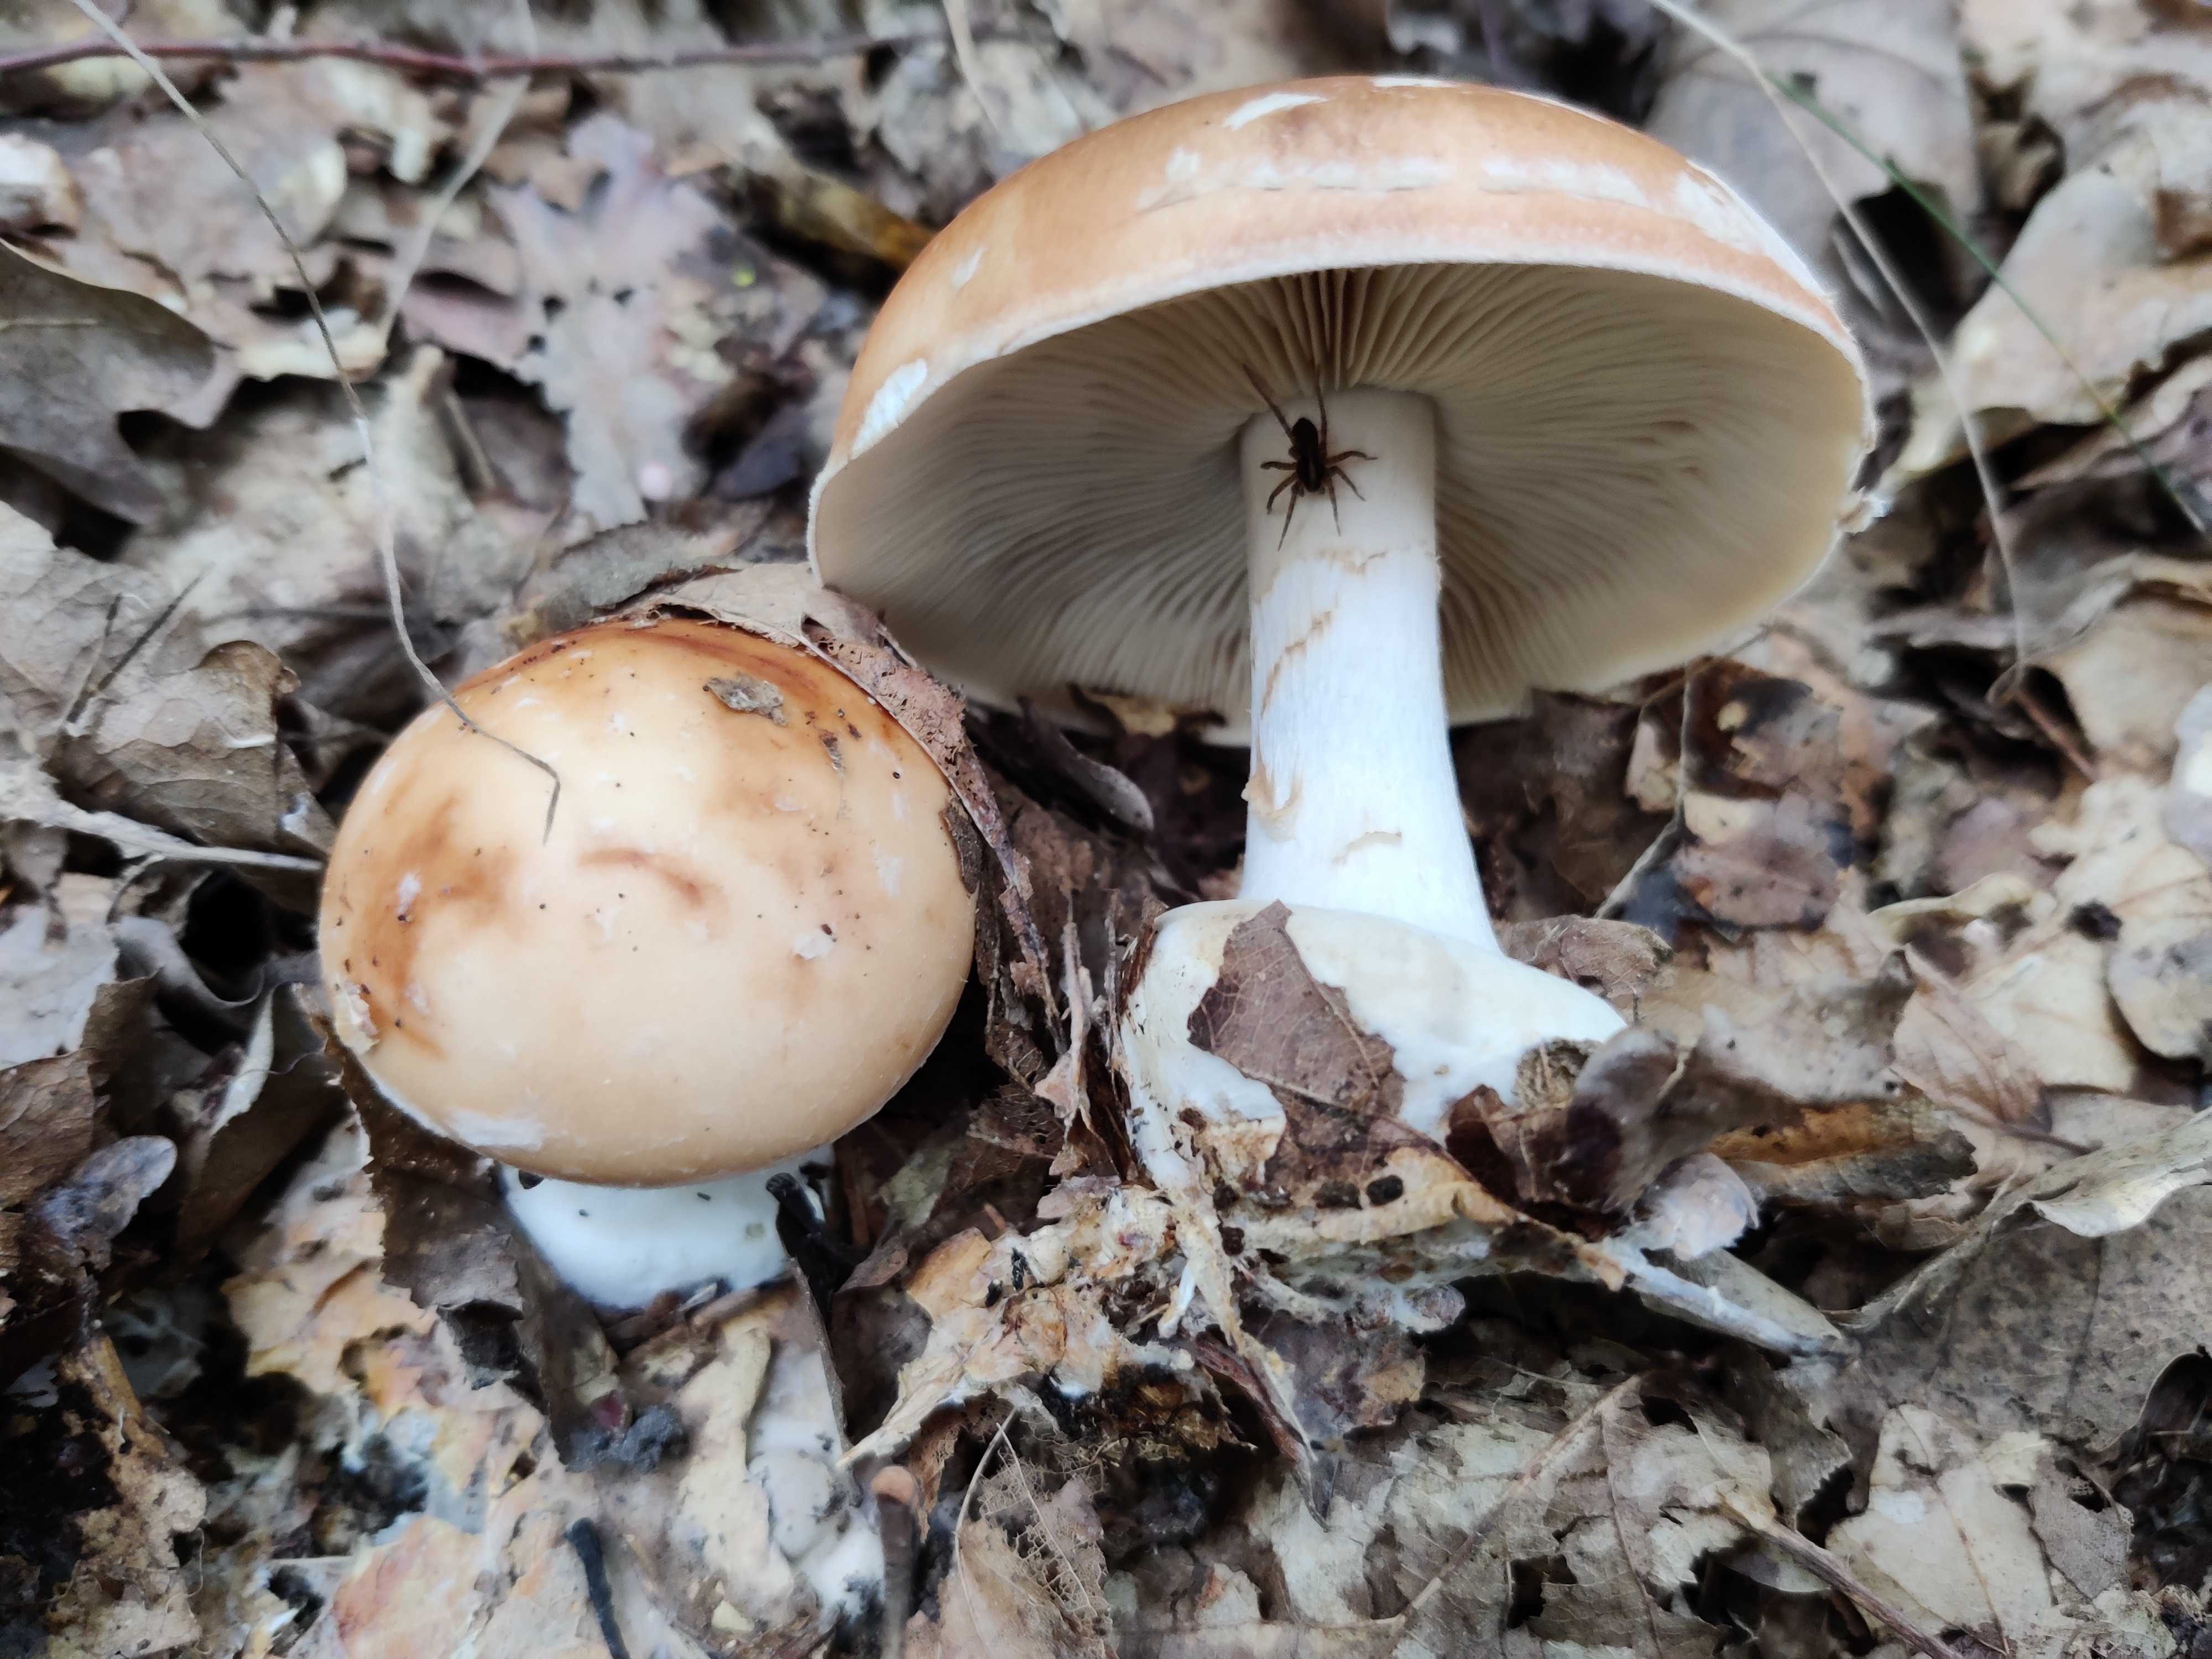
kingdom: Fungi
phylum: Basidiomycota
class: Agaricomycetes
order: Agaricales
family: Tricholomataceae
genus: Leucocortinarius
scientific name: Leucocortinarius bulbiger
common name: klumpfod
